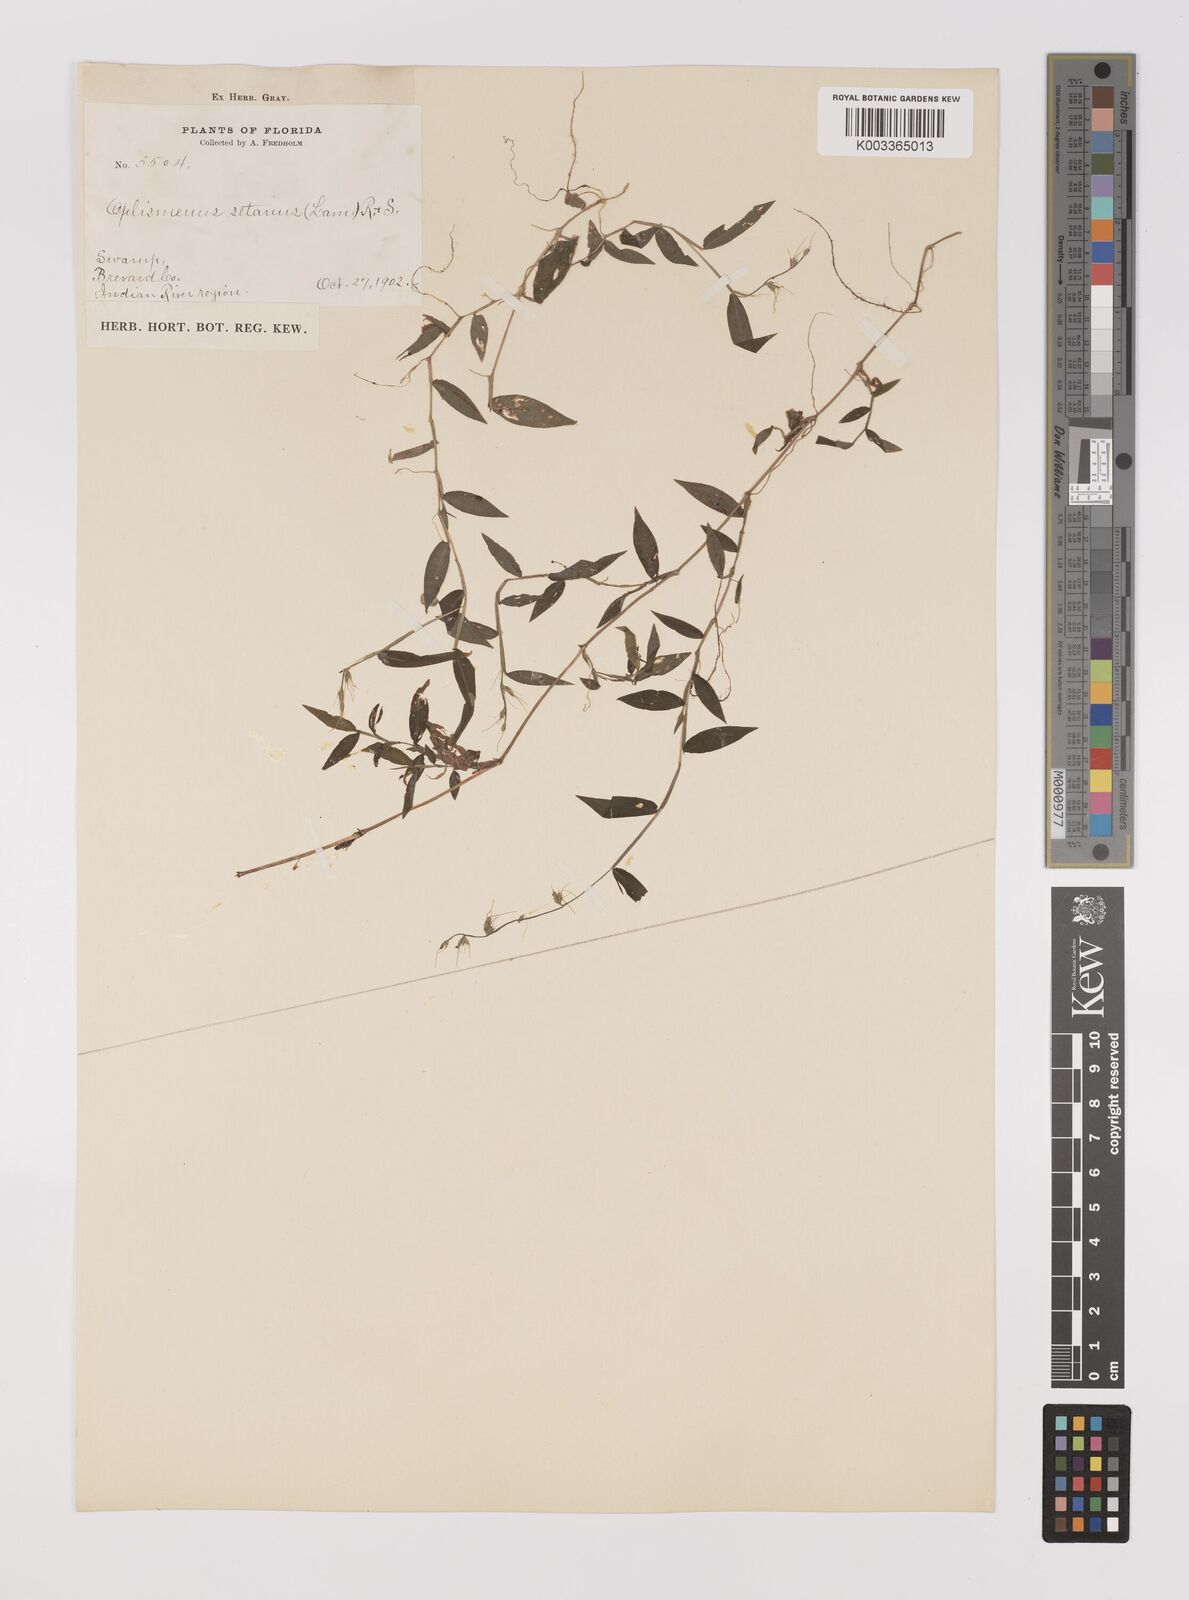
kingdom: Plantae
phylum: Tracheophyta
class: Liliopsida
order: Poales
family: Poaceae
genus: Oplismenus
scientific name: Oplismenus undulatifolius
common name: Wavyleaf basketgrass
